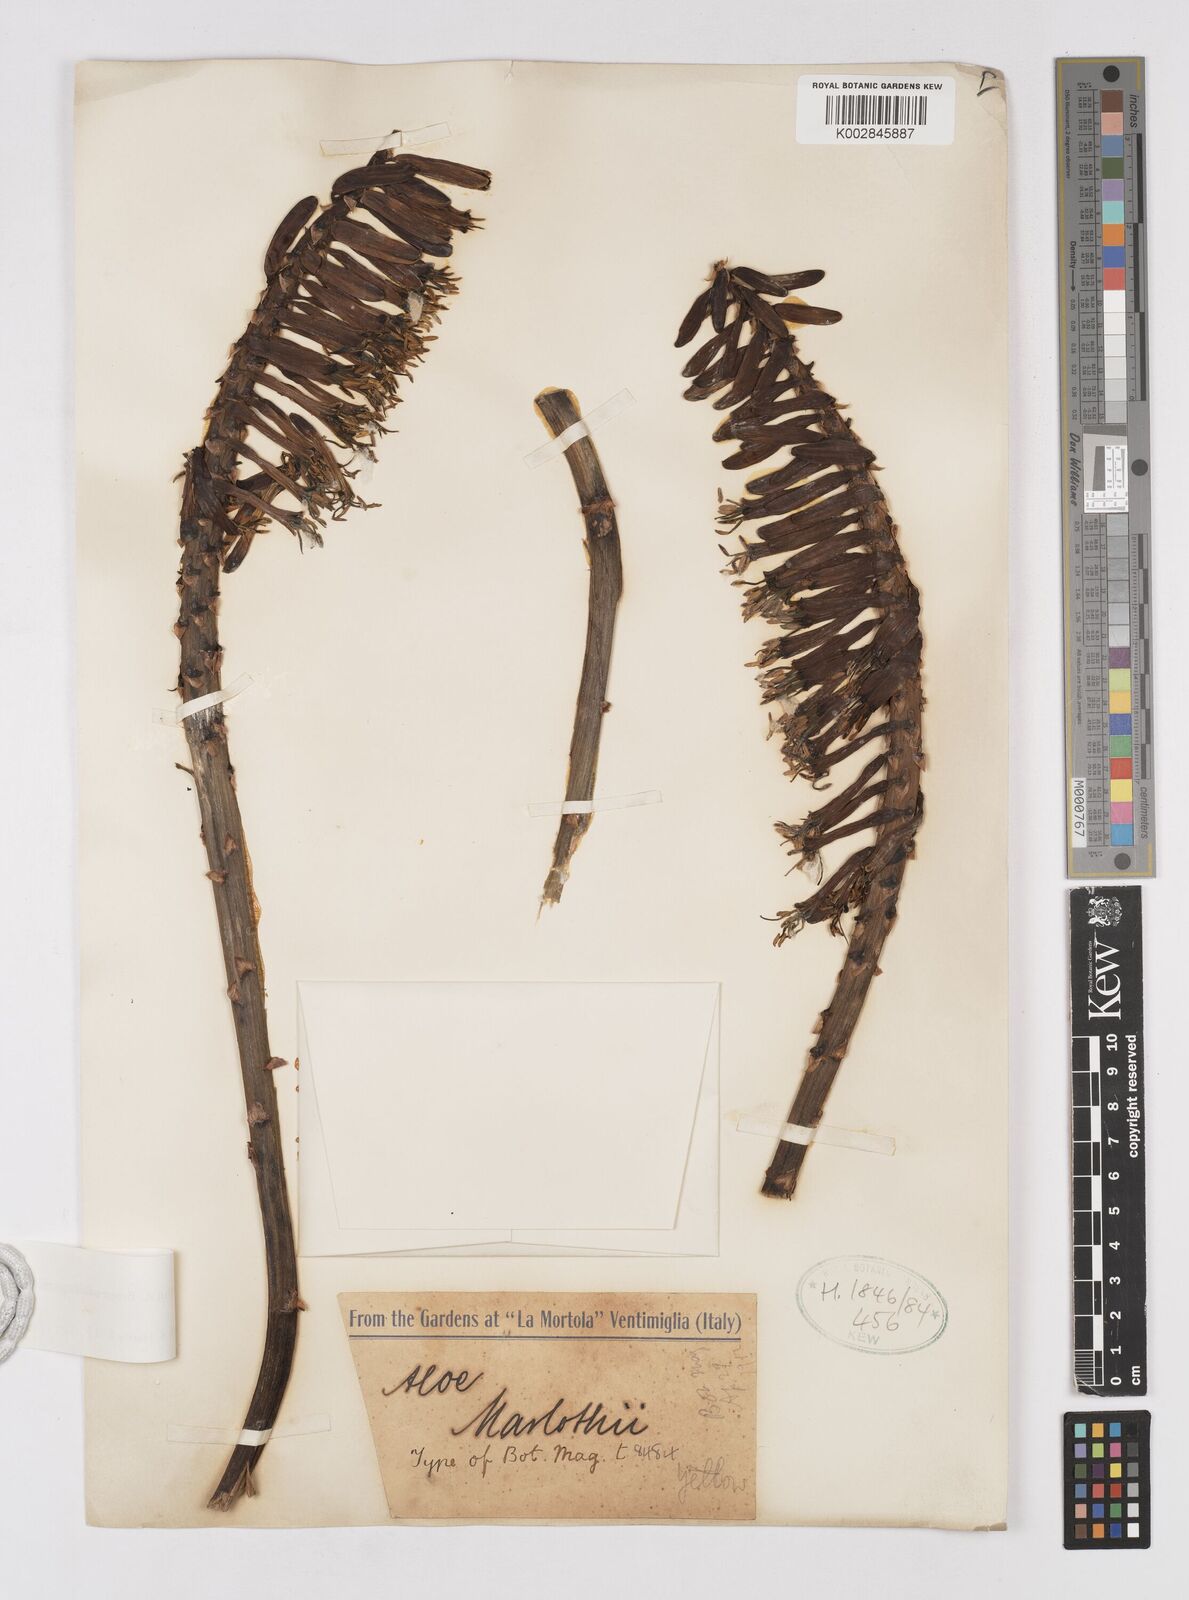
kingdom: Plantae
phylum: Tracheophyta
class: Liliopsida
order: Asparagales
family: Asphodelaceae
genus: Aloe
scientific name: Aloe marlothii
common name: Flat-flowered aloe
